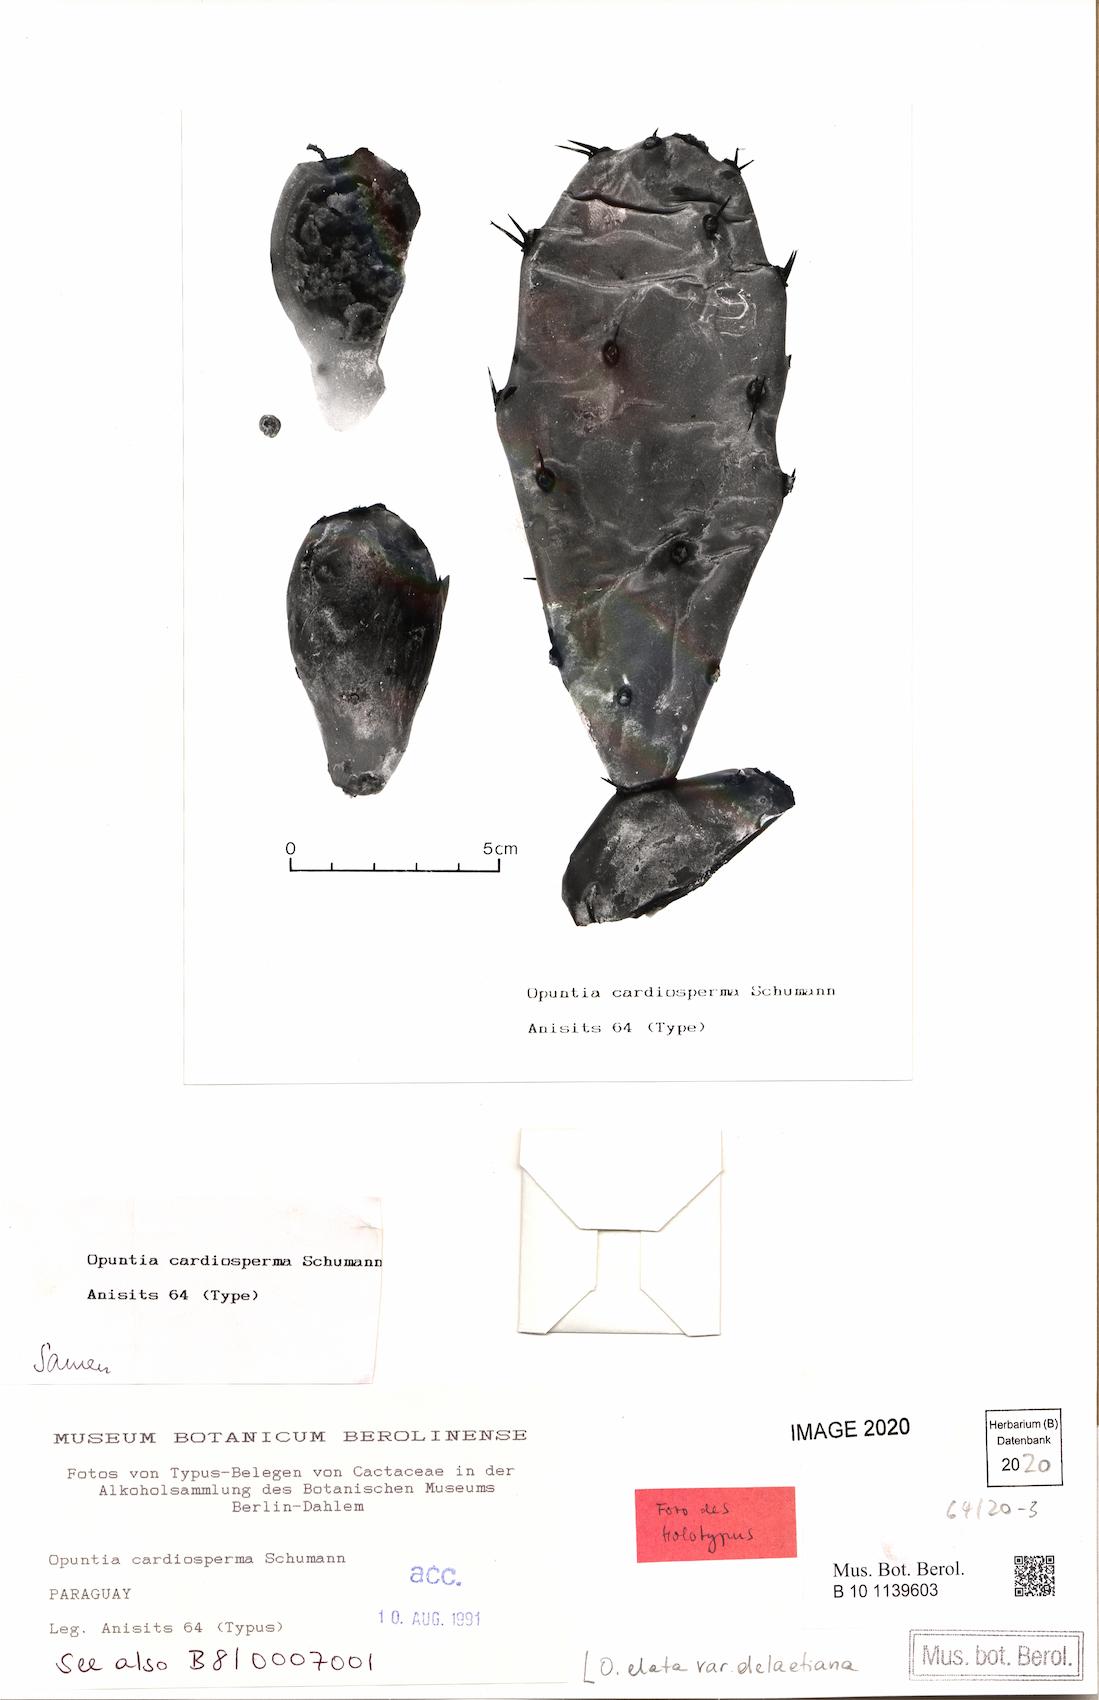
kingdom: Plantae
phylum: Tracheophyta
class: Magnoliopsida
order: Caryophyllales
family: Cactaceae
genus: Opuntia
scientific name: Opuntia elata
